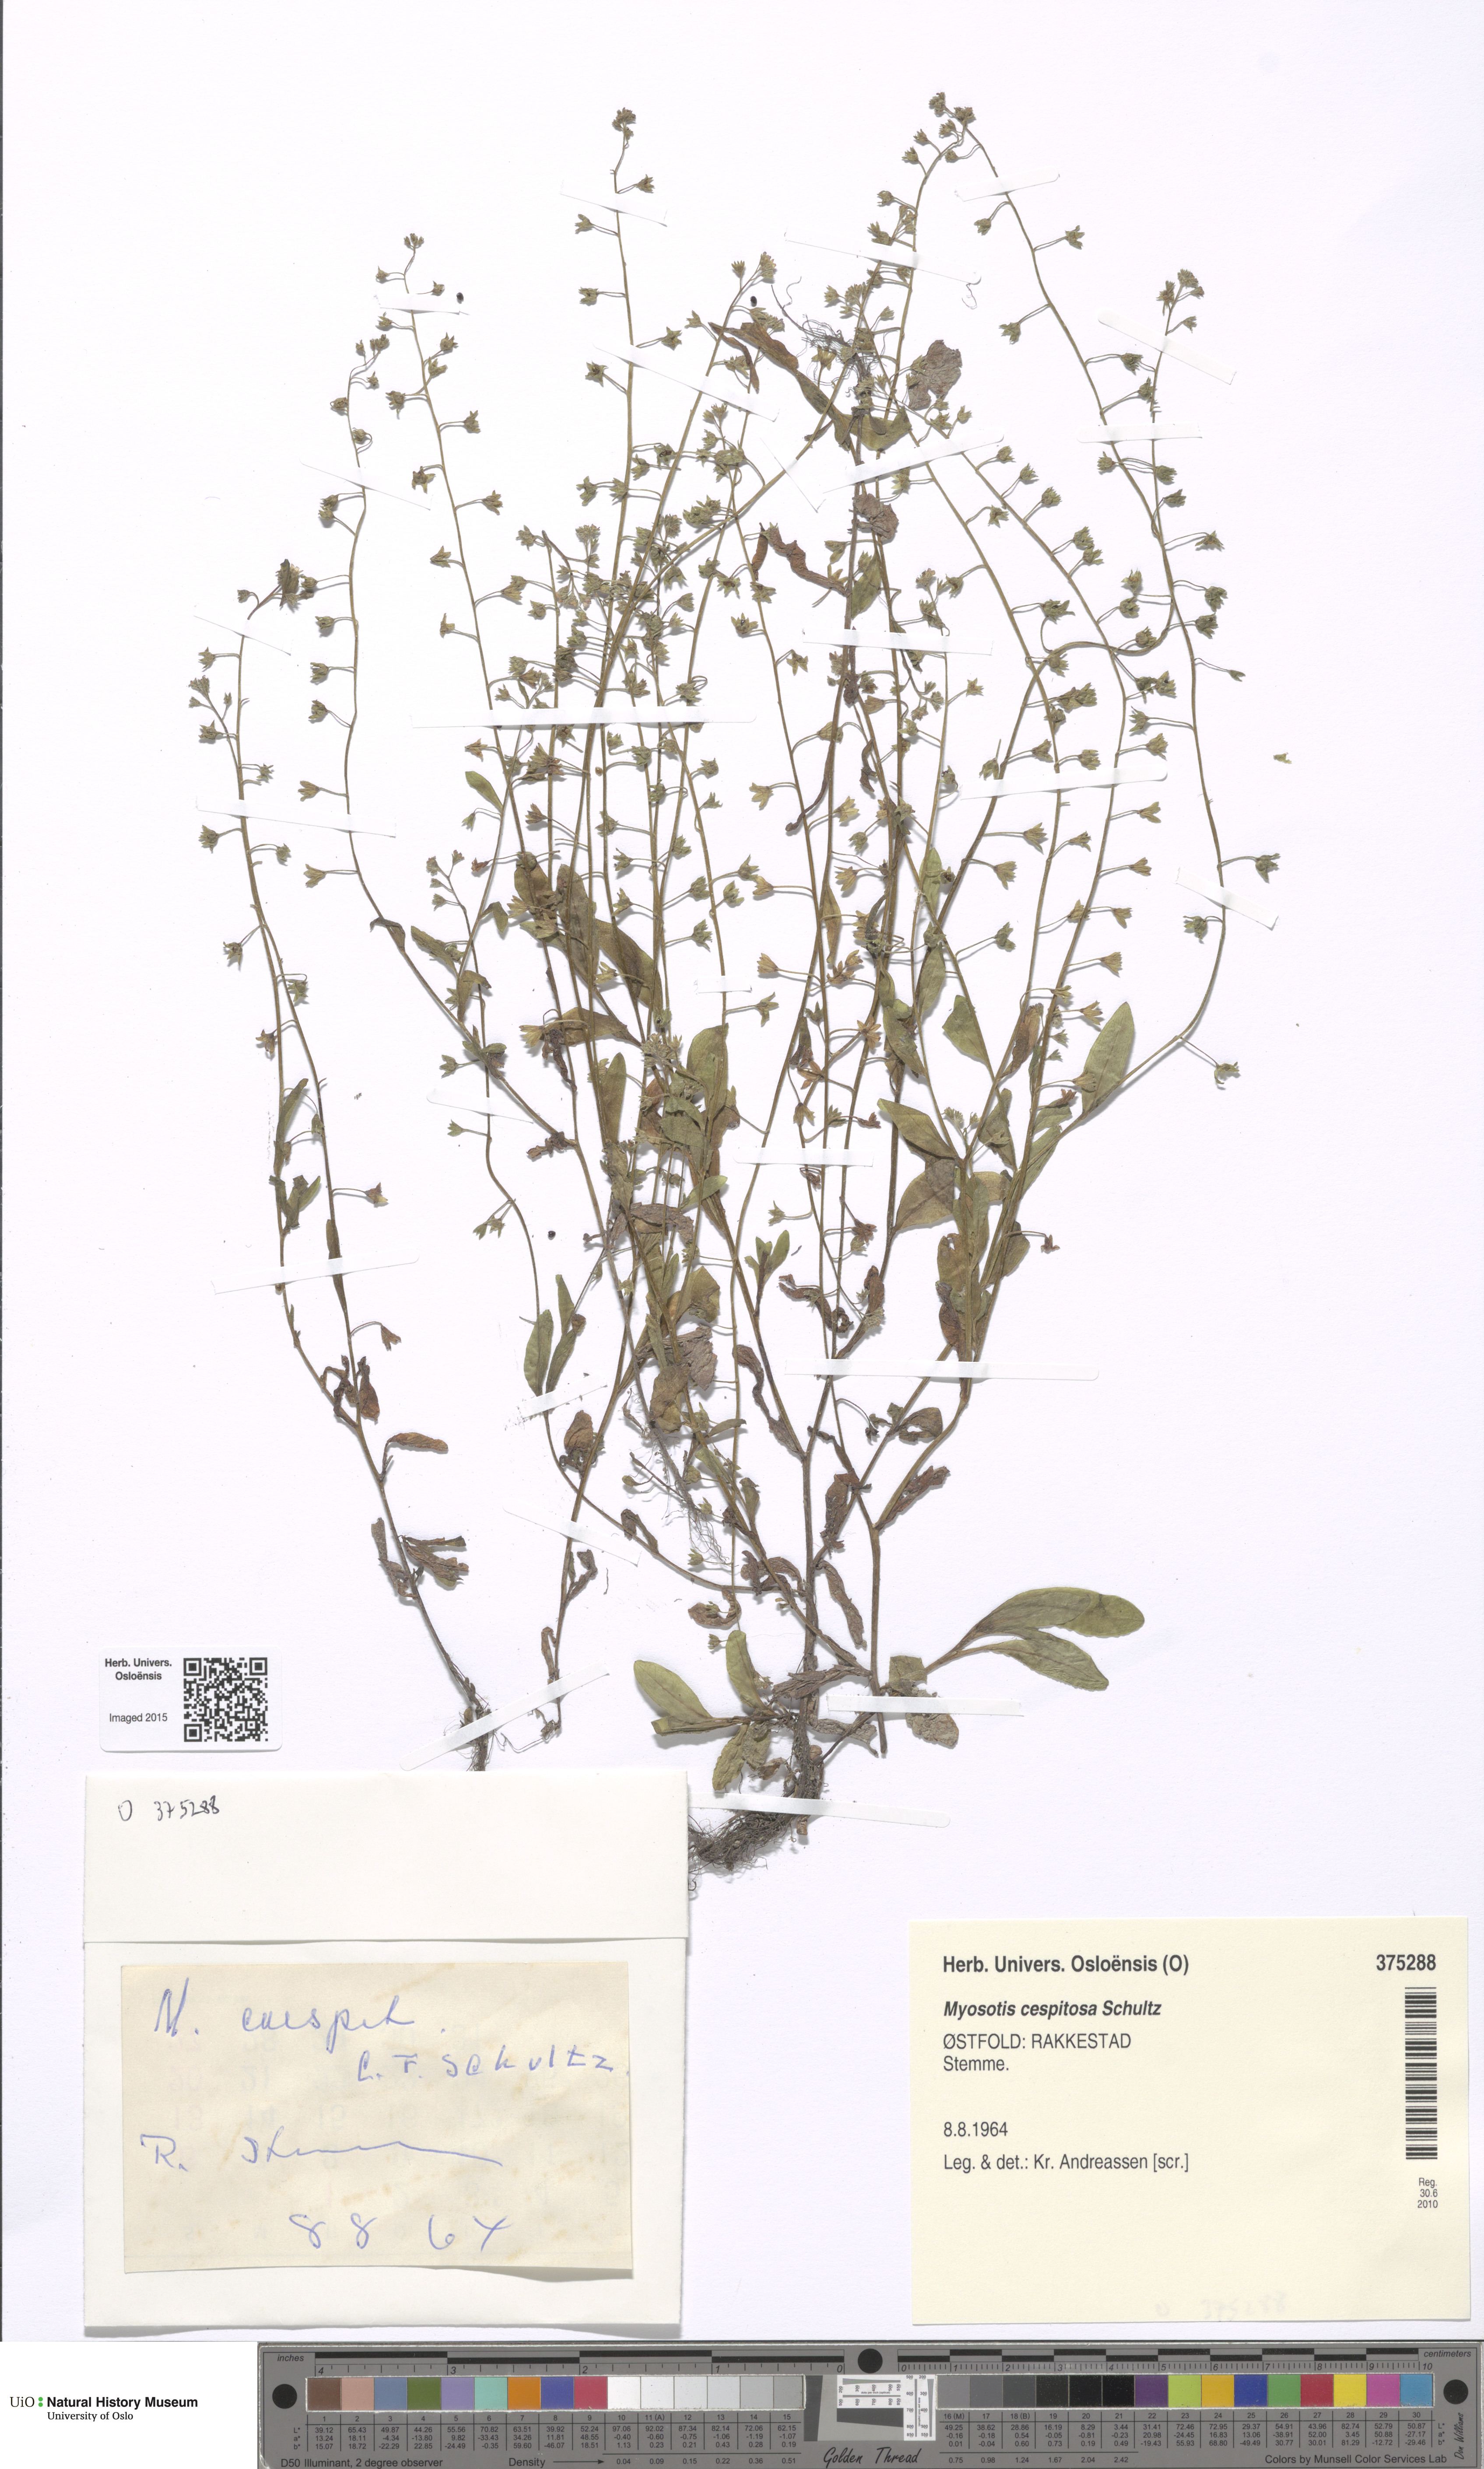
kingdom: Plantae
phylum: Tracheophyta
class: Magnoliopsida
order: Boraginales
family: Boraginaceae
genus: Myosotis
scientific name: Myosotis laxa
